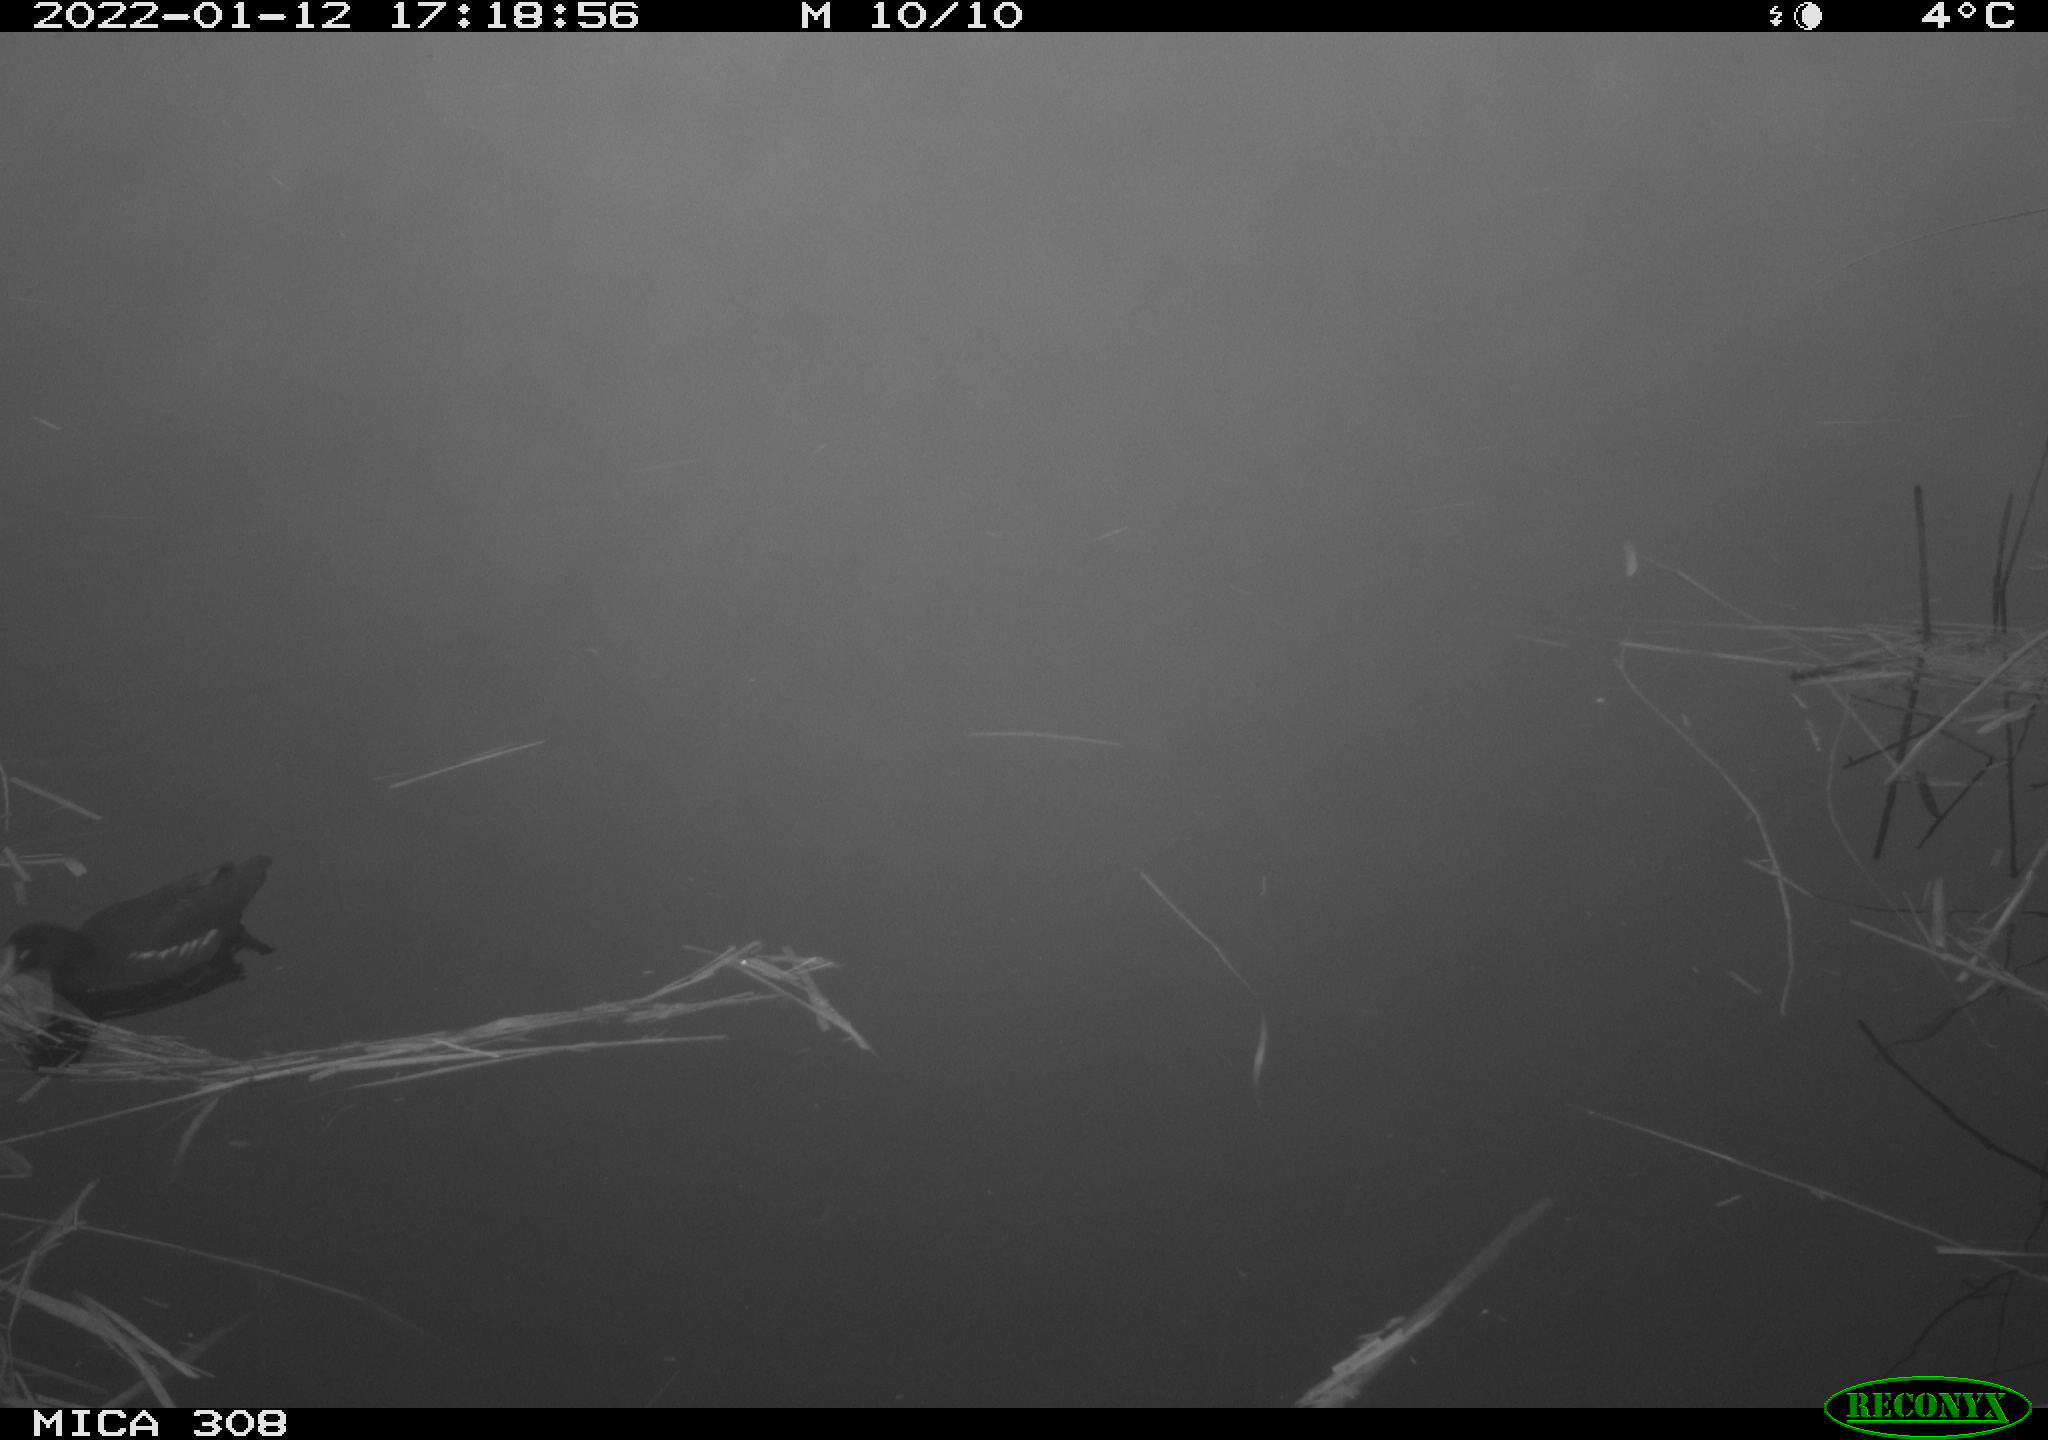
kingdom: Animalia
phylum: Chordata
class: Aves
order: Gruiformes
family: Rallidae
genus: Gallinula
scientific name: Gallinula chloropus
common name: Common moorhen
